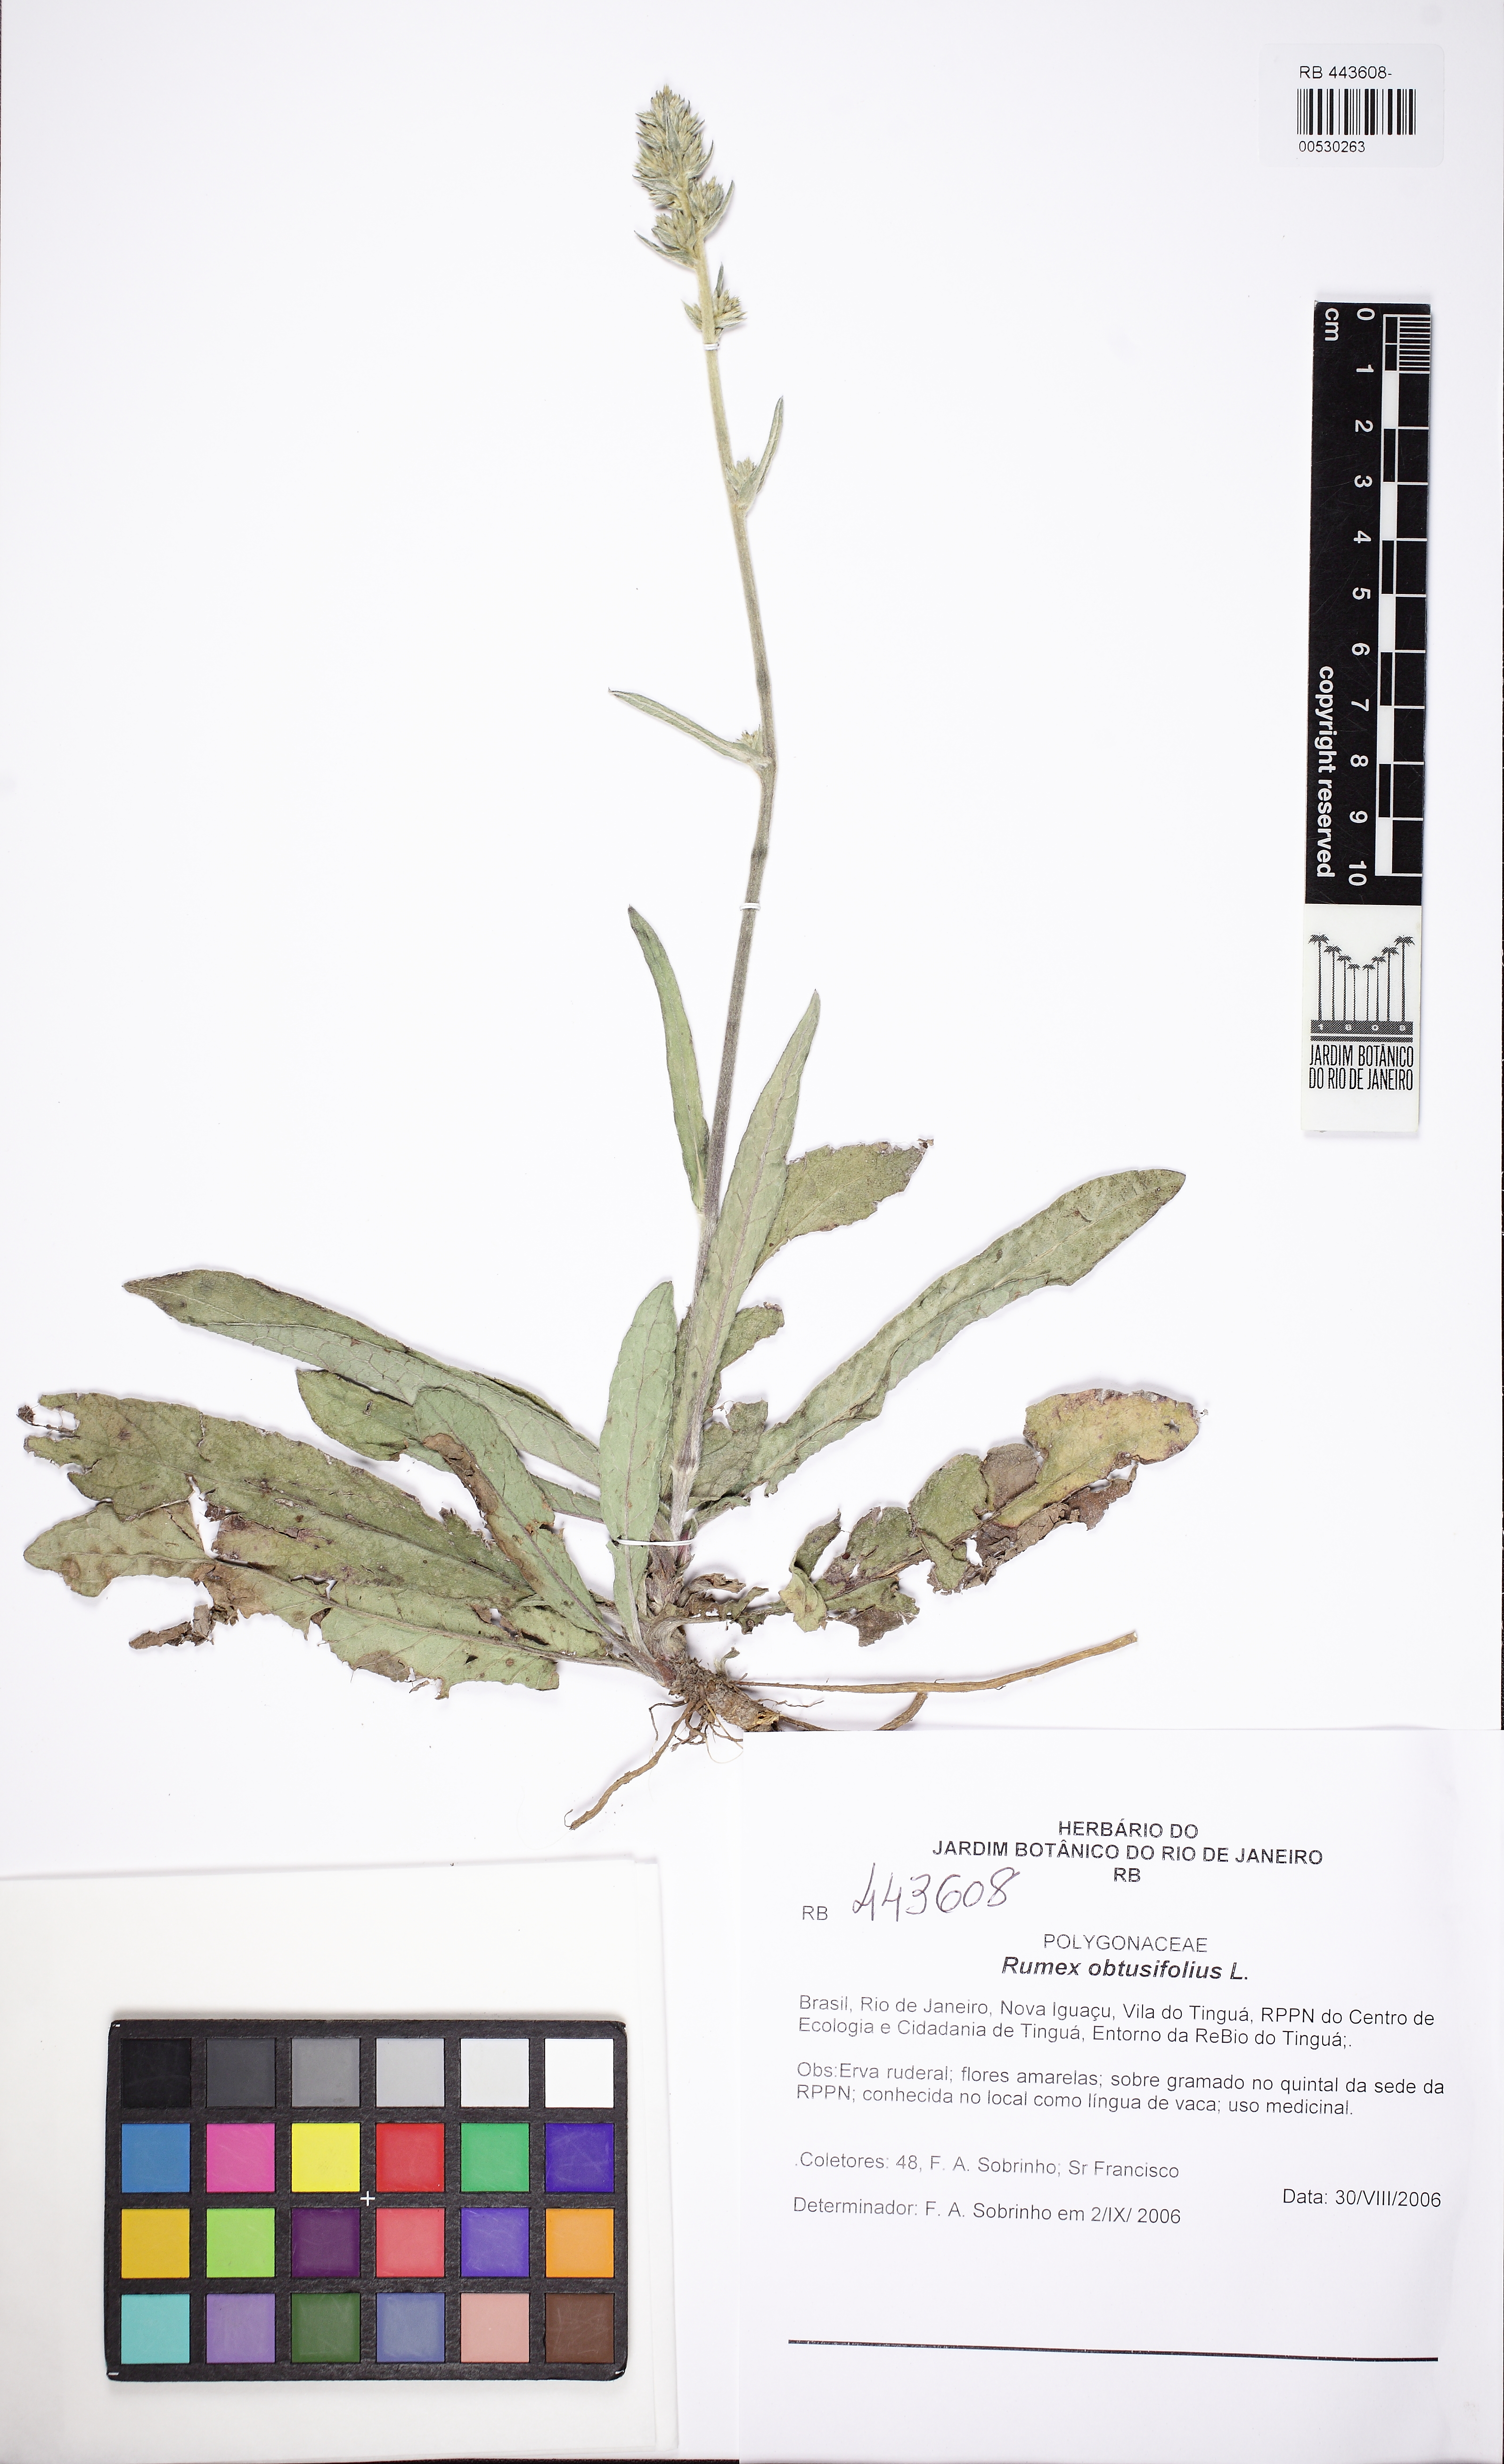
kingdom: Plantae
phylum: Tracheophyta
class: Magnoliopsida
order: Caryophyllales
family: Polygonaceae
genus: Rumex
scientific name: Rumex obtusifolius
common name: Bitter dock
